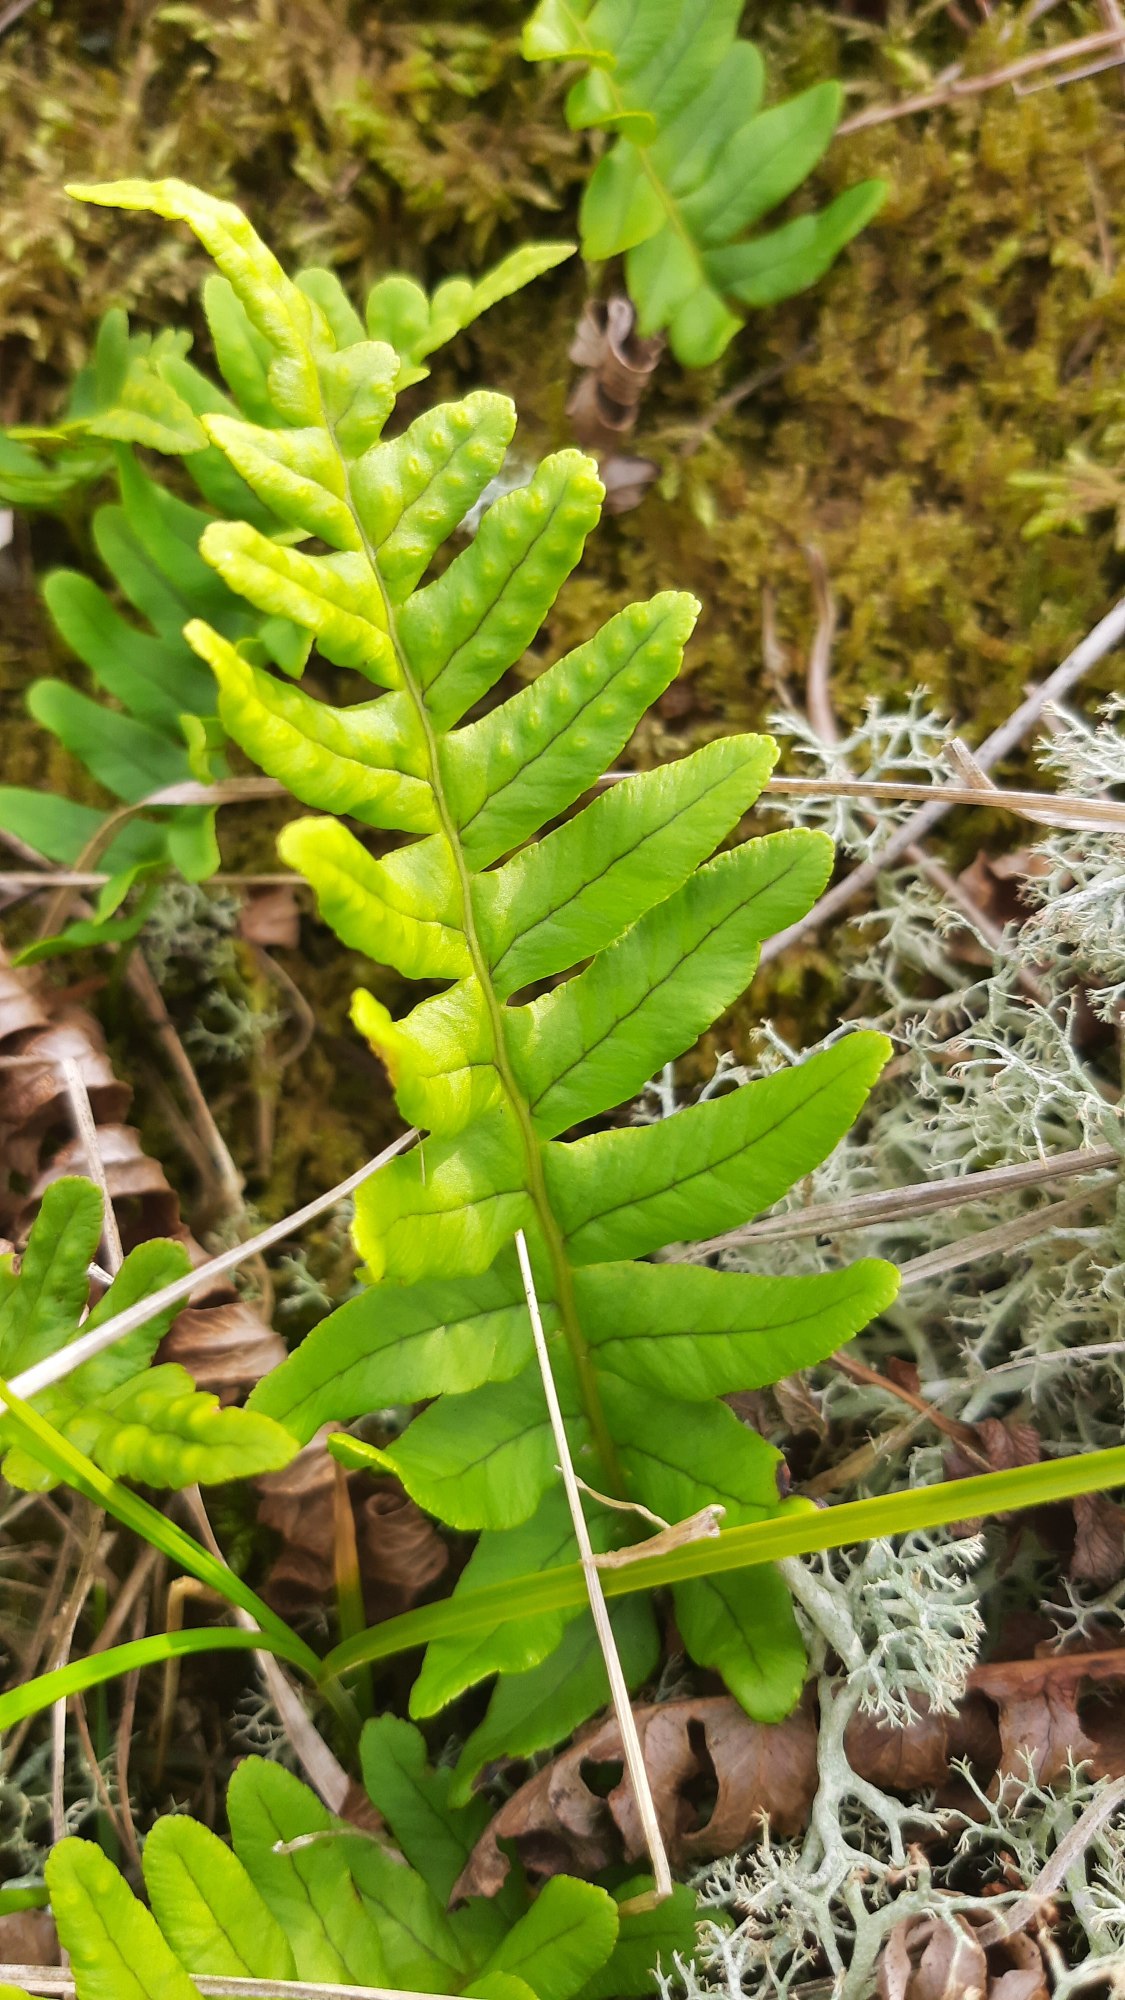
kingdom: Plantae
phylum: Tracheophyta
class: Polypodiopsida
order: Polypodiales
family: Polypodiaceae
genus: Polypodium
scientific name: Polypodium vulgare
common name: Almindelig engelsød
